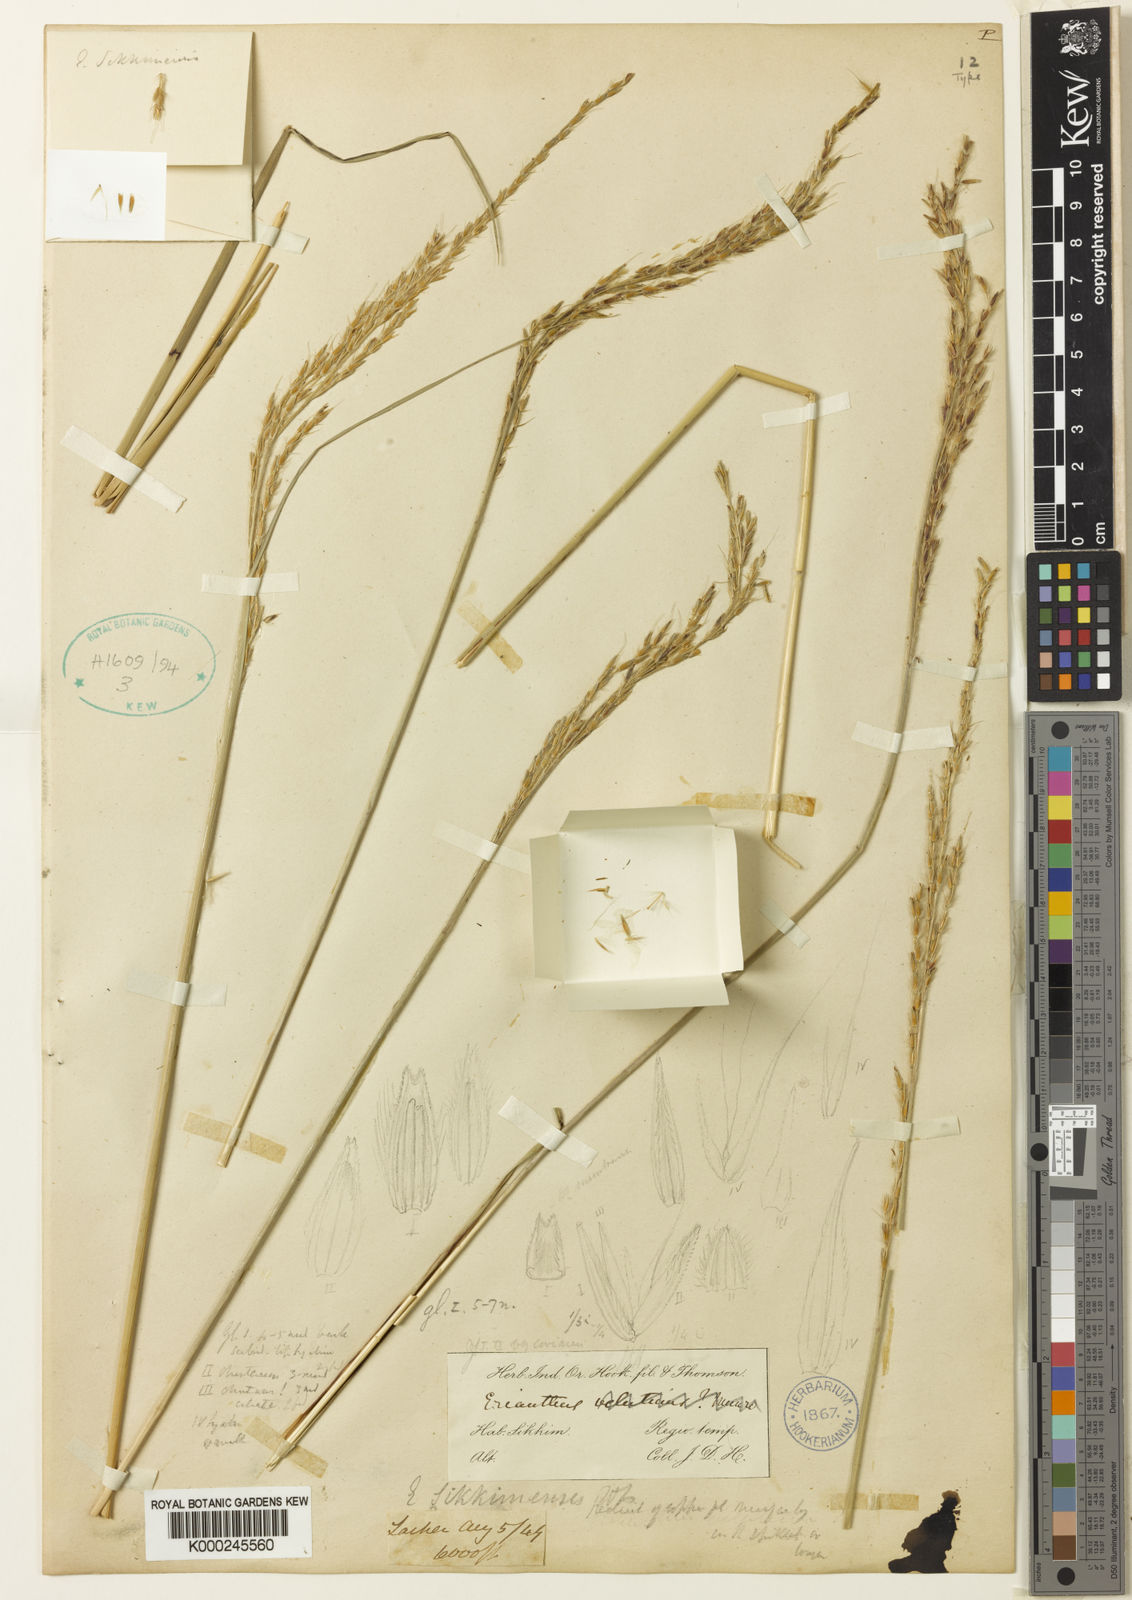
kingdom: Plantae
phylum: Tracheophyta
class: Liliopsida
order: Poales
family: Poaceae
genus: Saccharum
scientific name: Saccharum sikkimense
